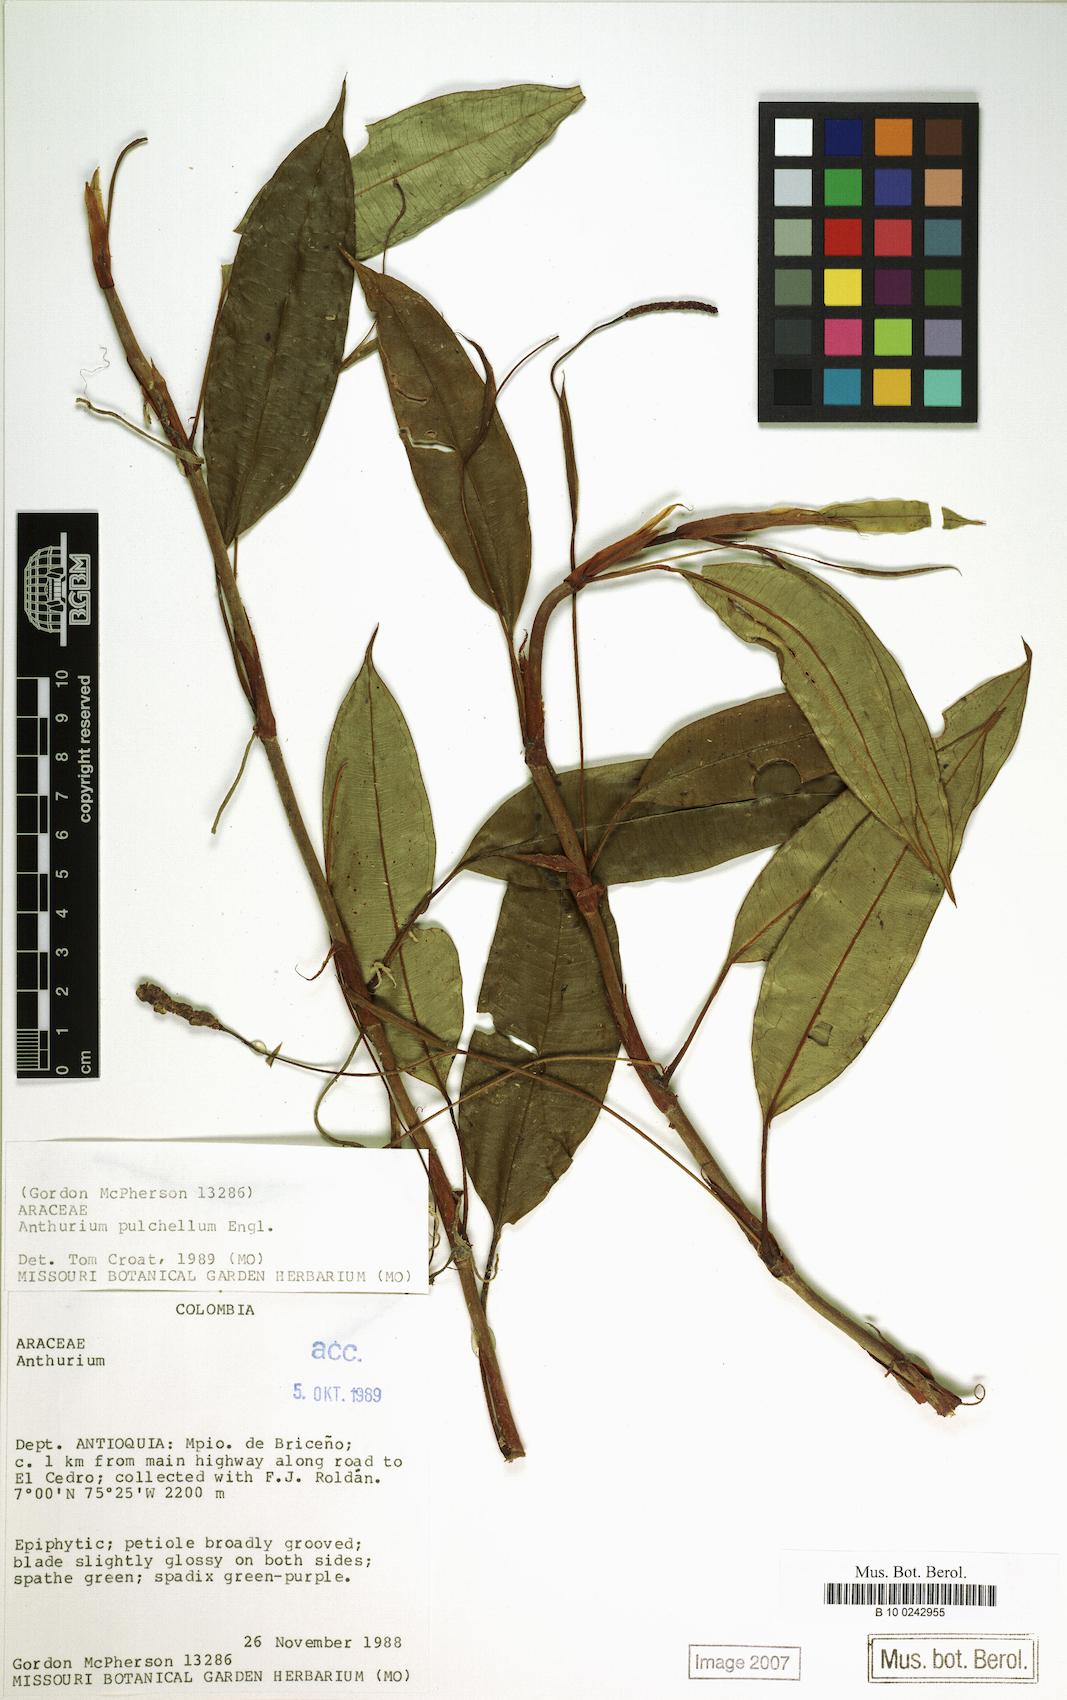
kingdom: Plantae
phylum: Tracheophyta
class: Liliopsida
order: Alismatales
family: Araceae
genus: Anthurium
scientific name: Anthurium pulchellum
